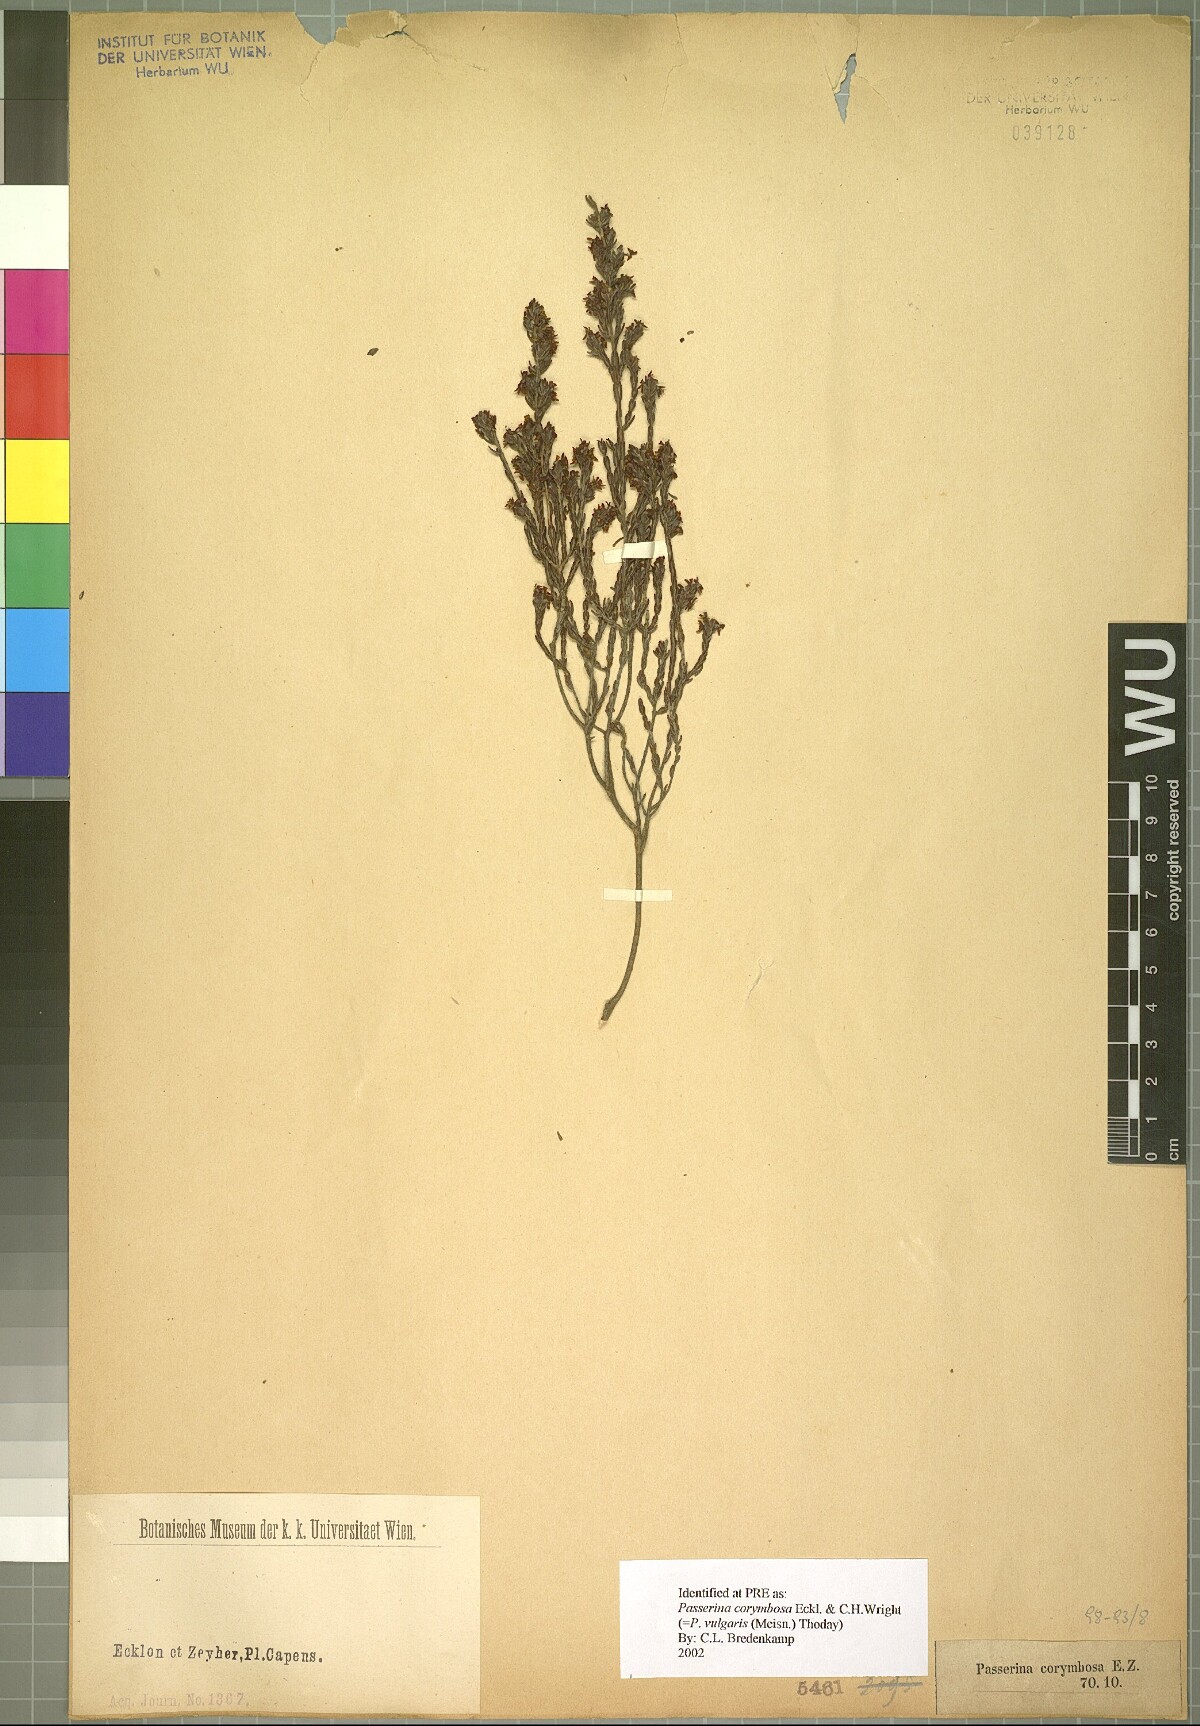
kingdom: Plantae
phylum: Tracheophyta
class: Magnoliopsida
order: Malvales
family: Thymelaeaceae
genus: Passerina
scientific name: Passerina corymbosa
